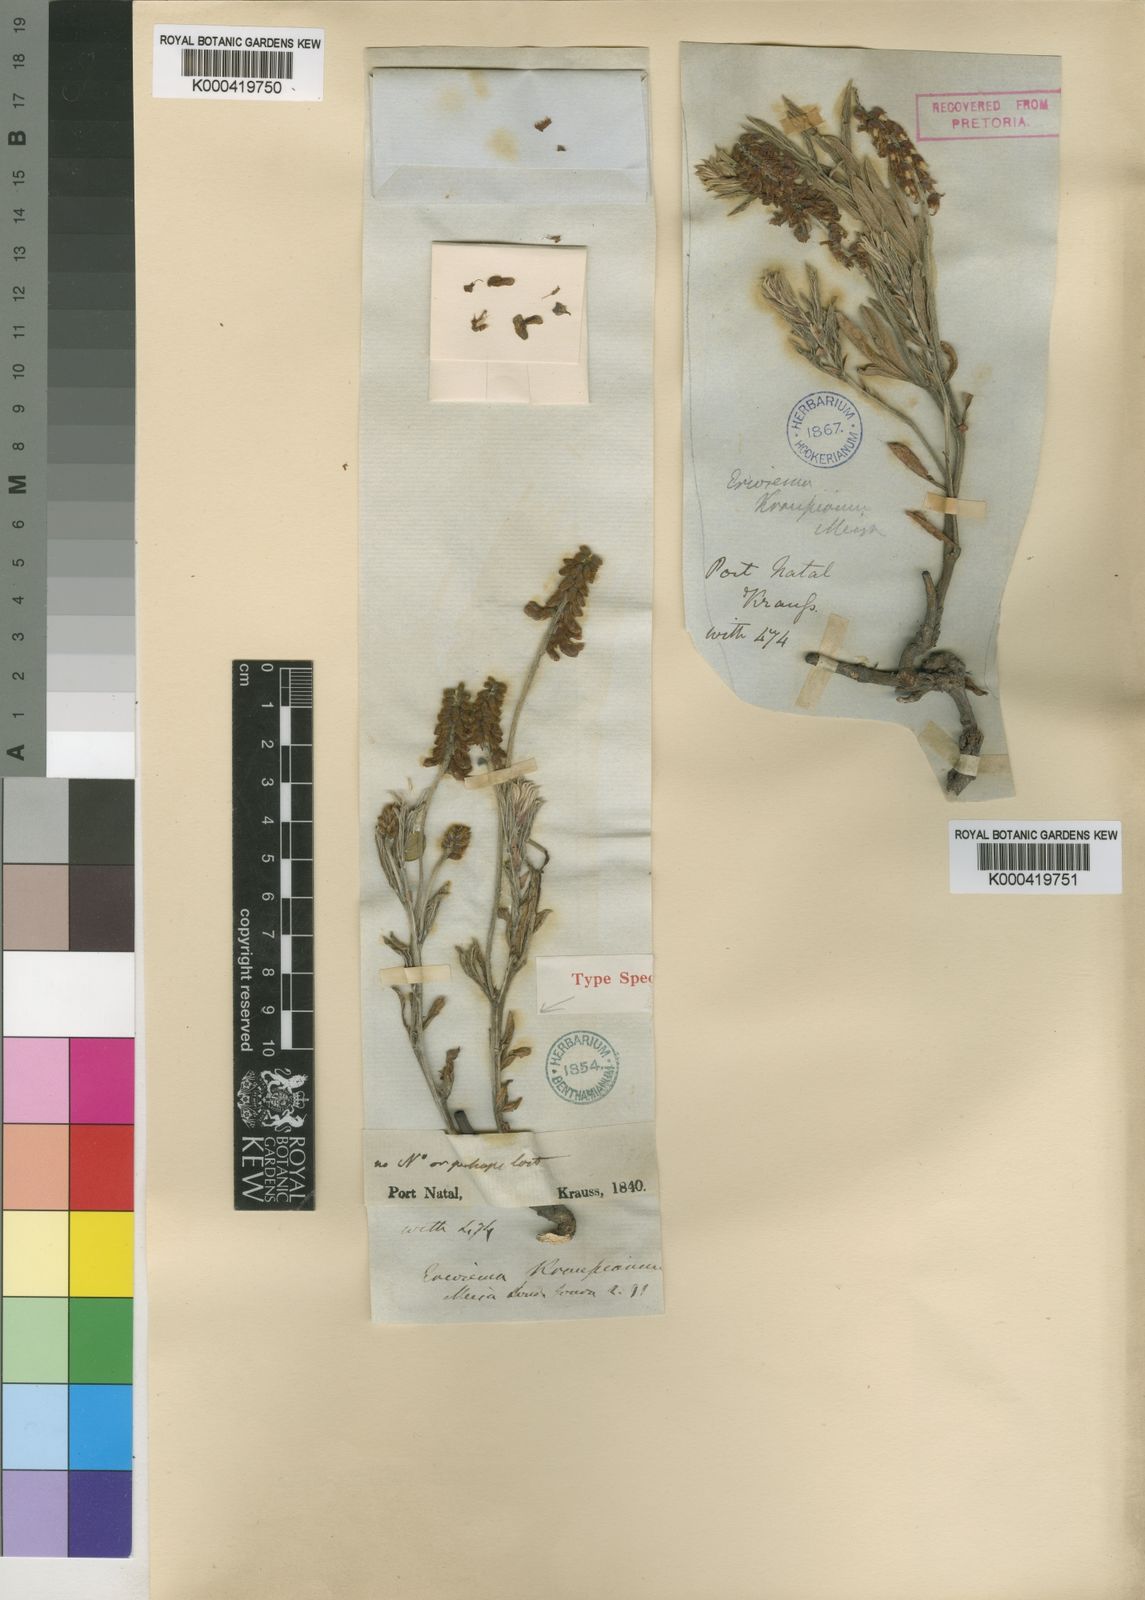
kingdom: Plantae
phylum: Tracheophyta
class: Magnoliopsida
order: Fabales
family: Fabaceae
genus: Eriosema
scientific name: Eriosema kraussianum
